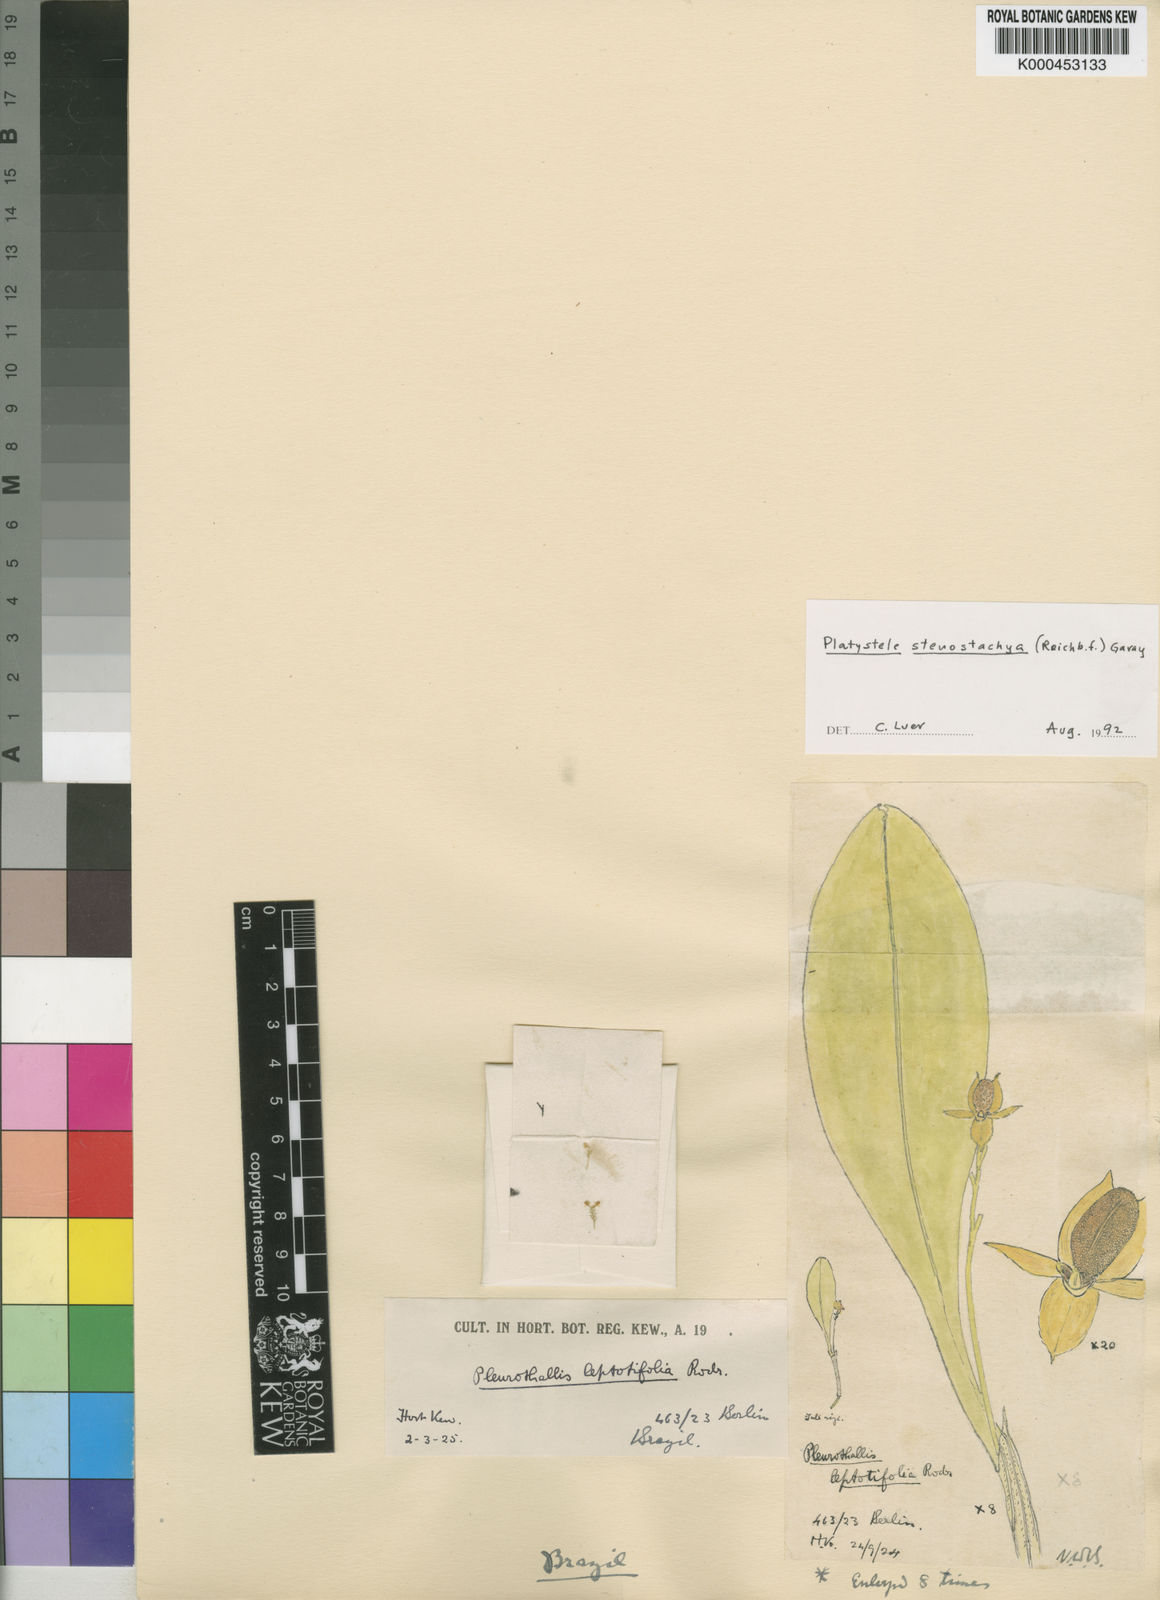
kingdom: Plantae
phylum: Tracheophyta
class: Liliopsida
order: Asparagales
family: Orchidaceae
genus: Platystele
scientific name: Platystele stenostachya
